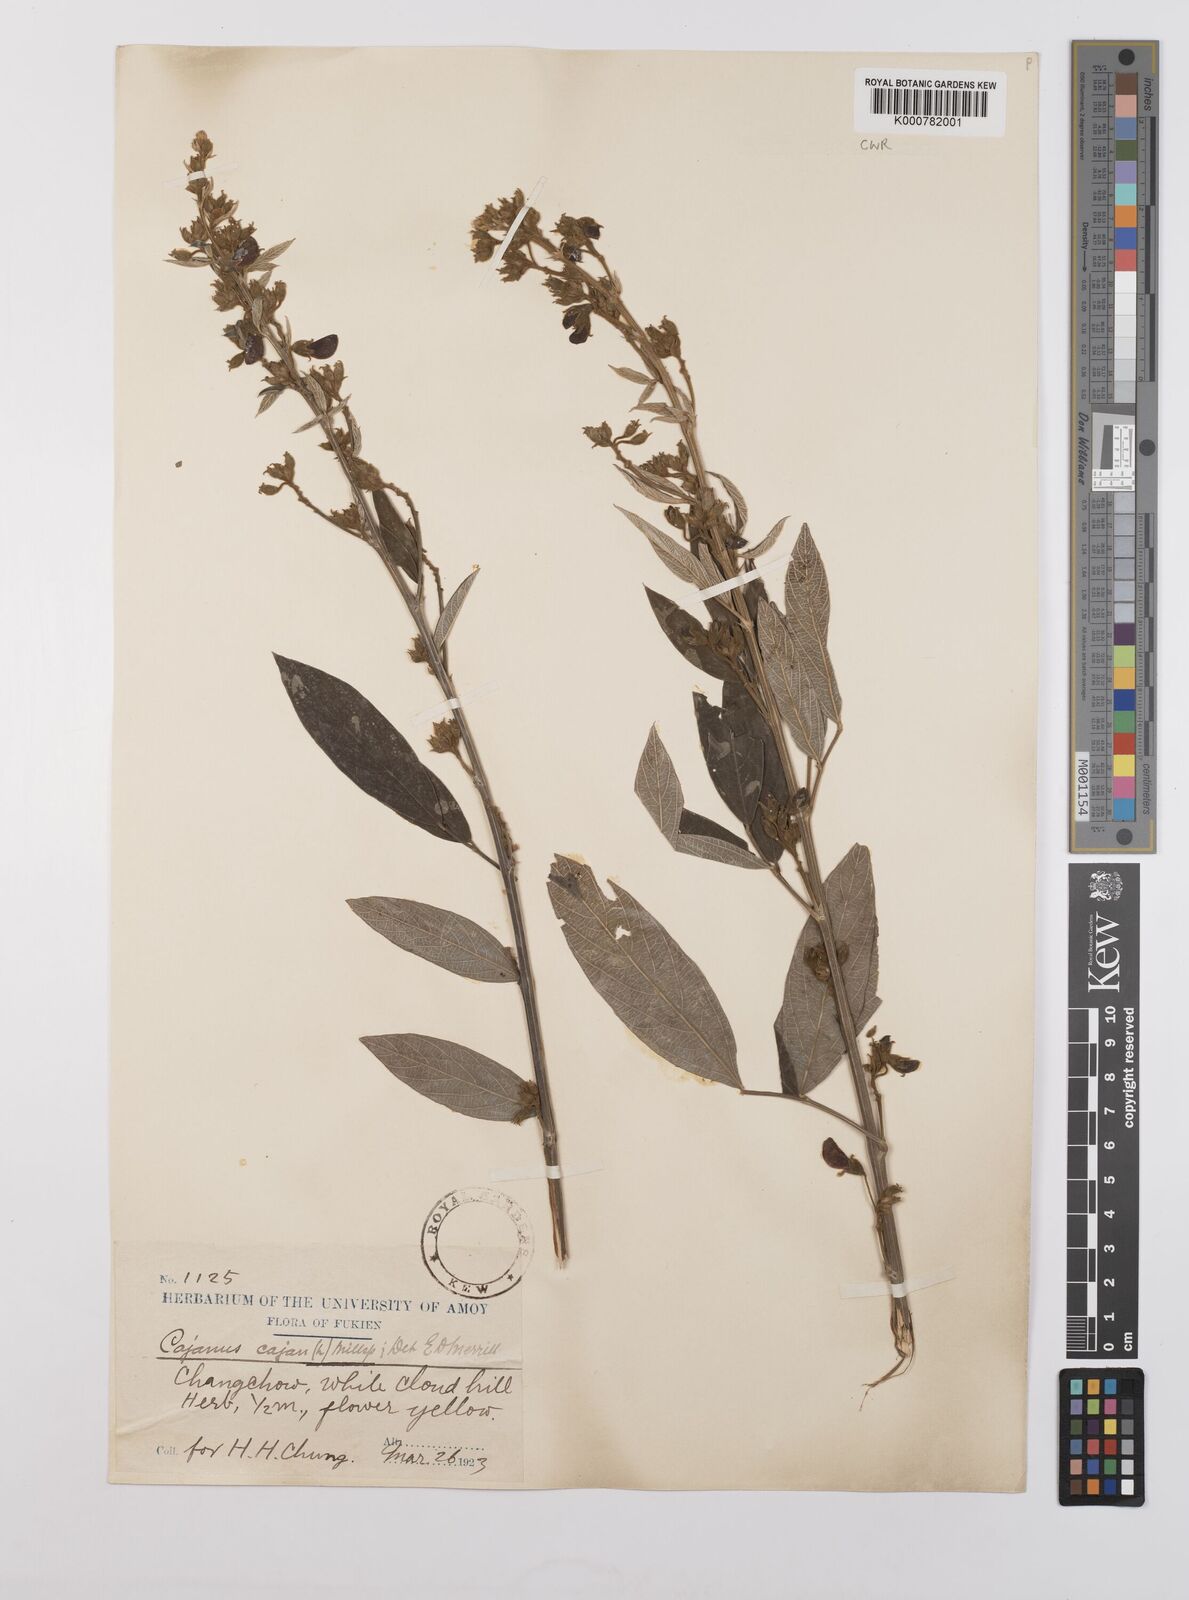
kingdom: Plantae
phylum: Tracheophyta
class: Magnoliopsida
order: Fabales
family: Fabaceae
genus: Cajanus
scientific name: Cajanus
